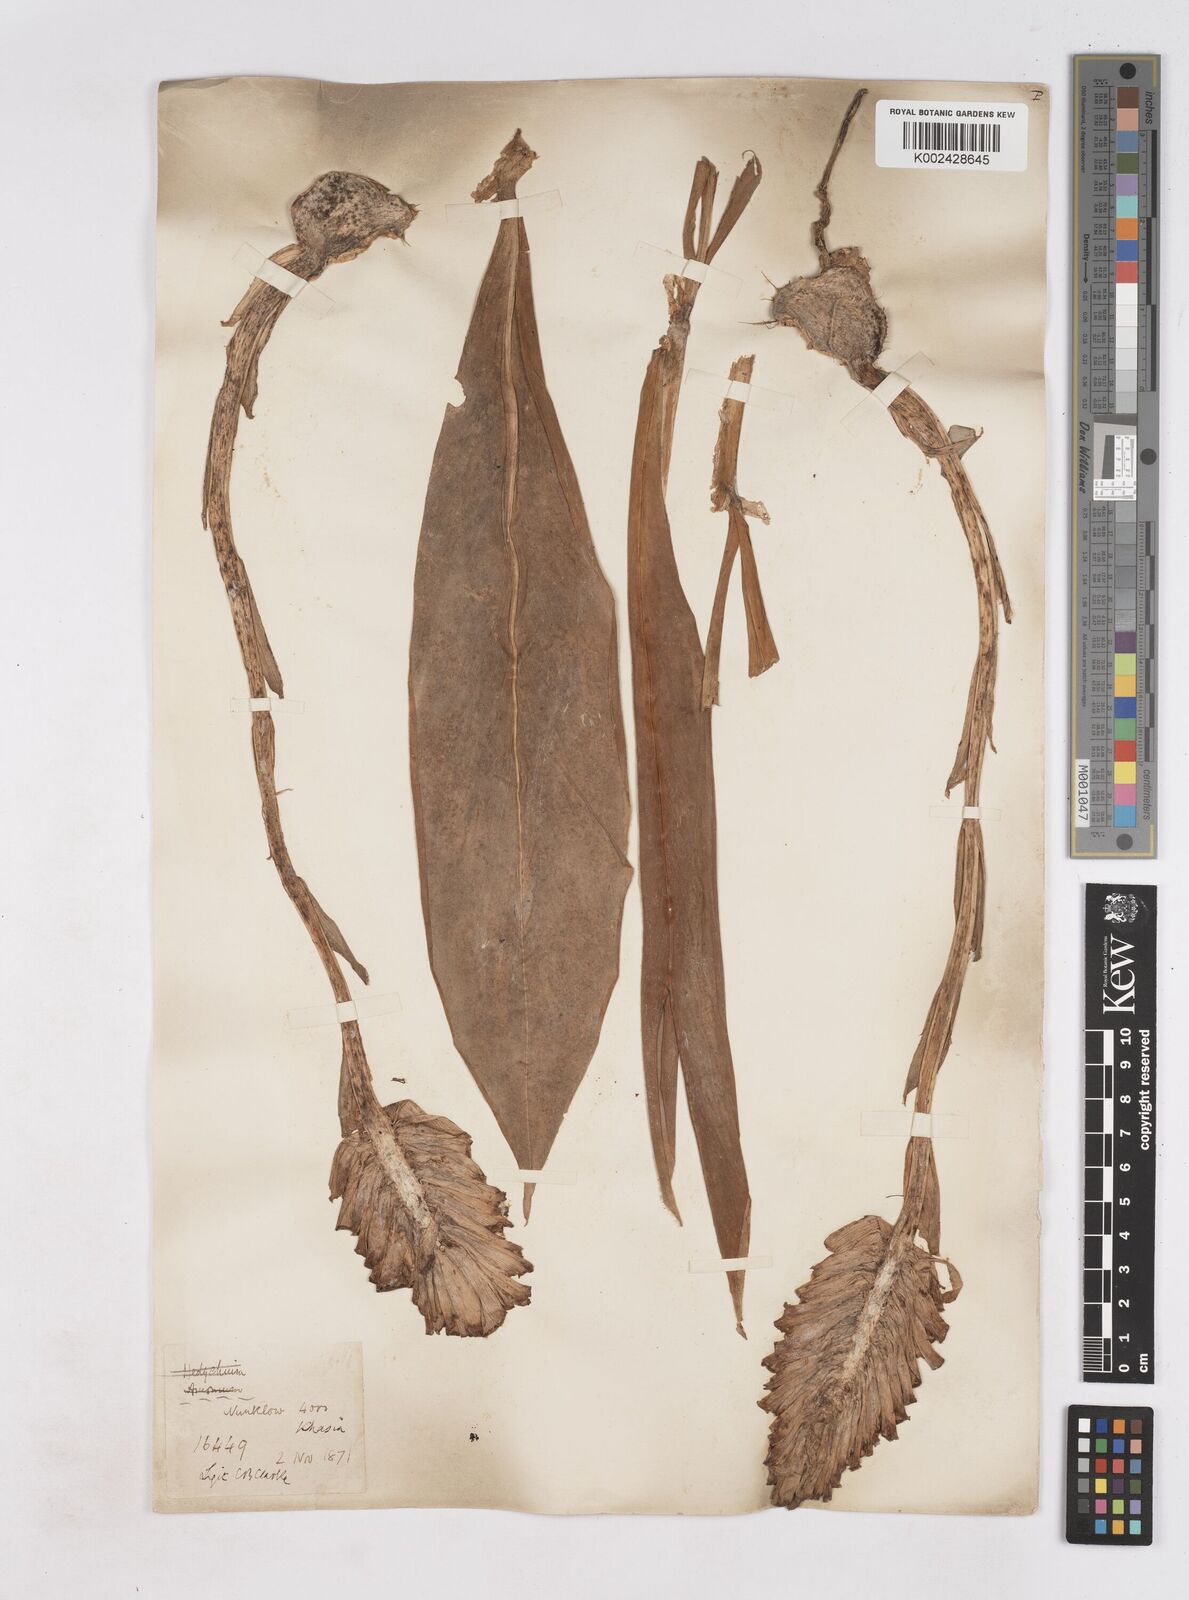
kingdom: Plantae
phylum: Tracheophyta
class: Liliopsida
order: Zingiberales
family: Zingiberaceae
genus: Zingiber
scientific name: Zingiber zerumbet
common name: Bitter ginger
